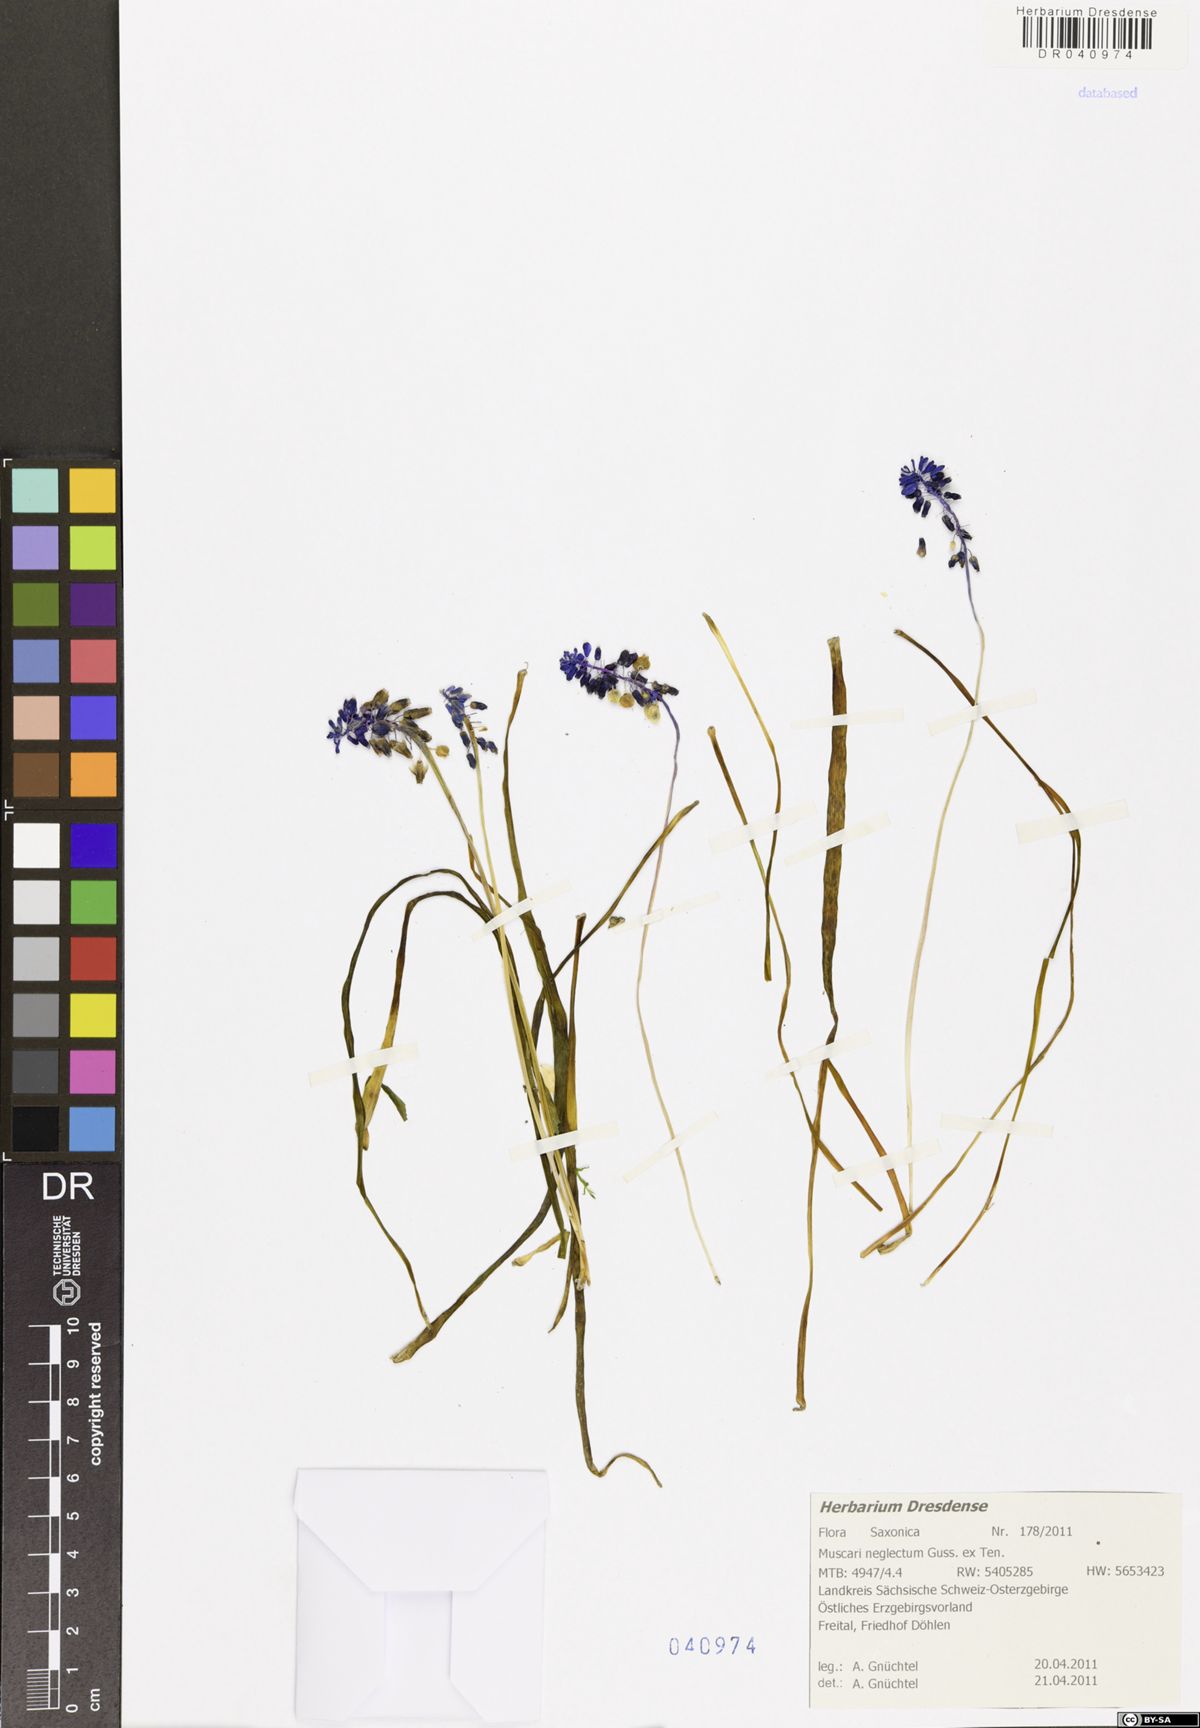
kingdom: Plantae
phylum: Tracheophyta
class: Liliopsida
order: Asparagales
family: Asparagaceae
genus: Muscari
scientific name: Muscari neglectum
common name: Grape-hyacinth
